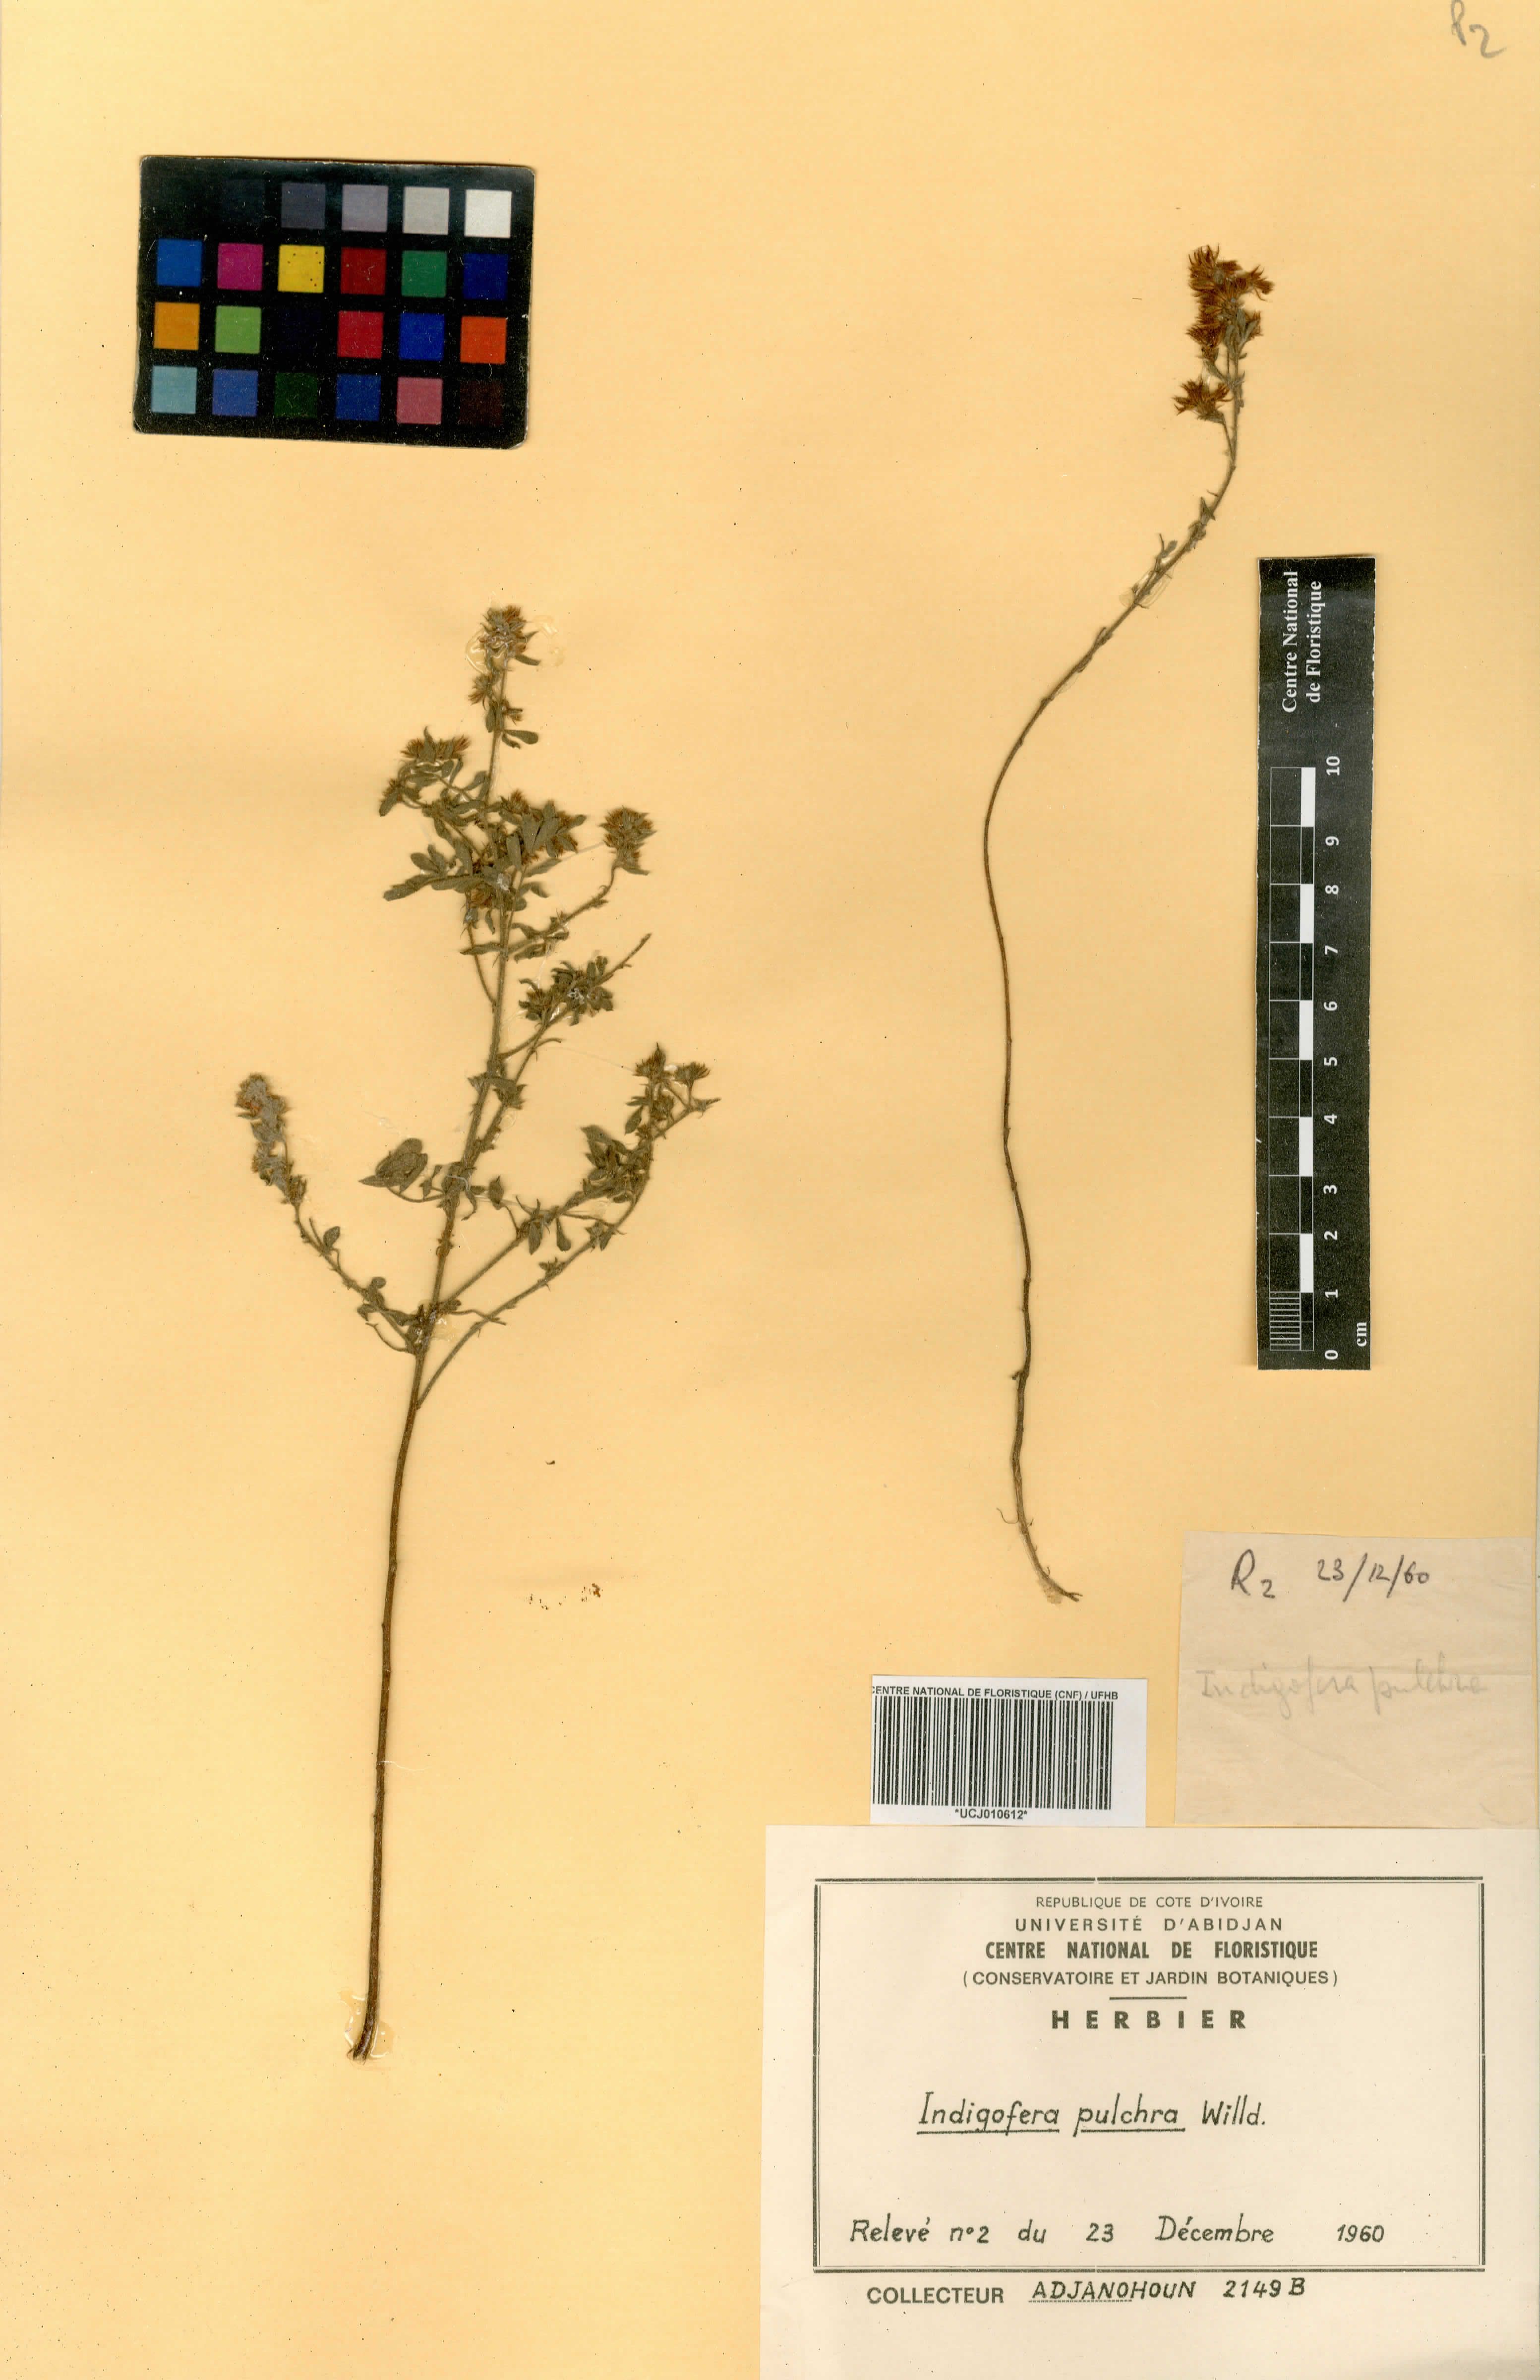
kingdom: Plantae
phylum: Tracheophyta
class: Magnoliopsida
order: Fabales
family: Fabaceae
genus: Indigofera
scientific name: Indigofera pulchra
